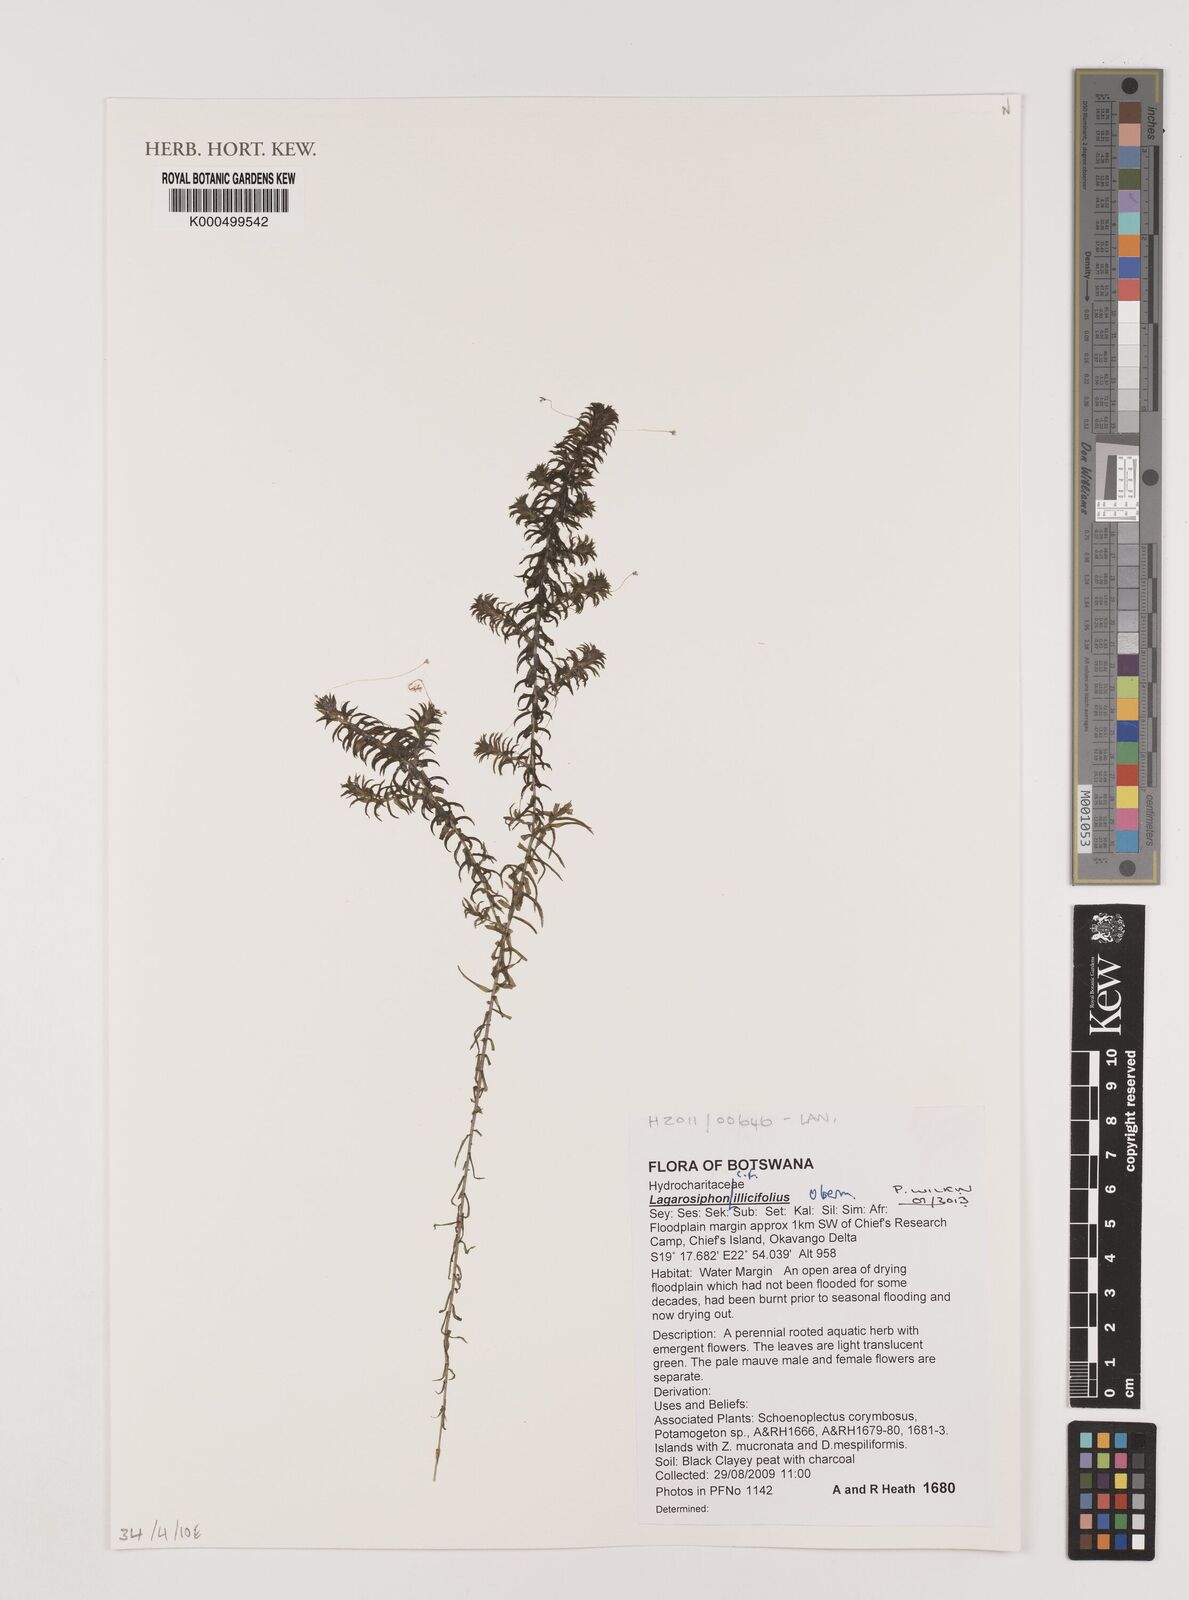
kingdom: Plantae
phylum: Tracheophyta
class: Liliopsida
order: Alismatales
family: Hydrocharitaceae
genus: Lagarosiphon
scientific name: Lagarosiphon
